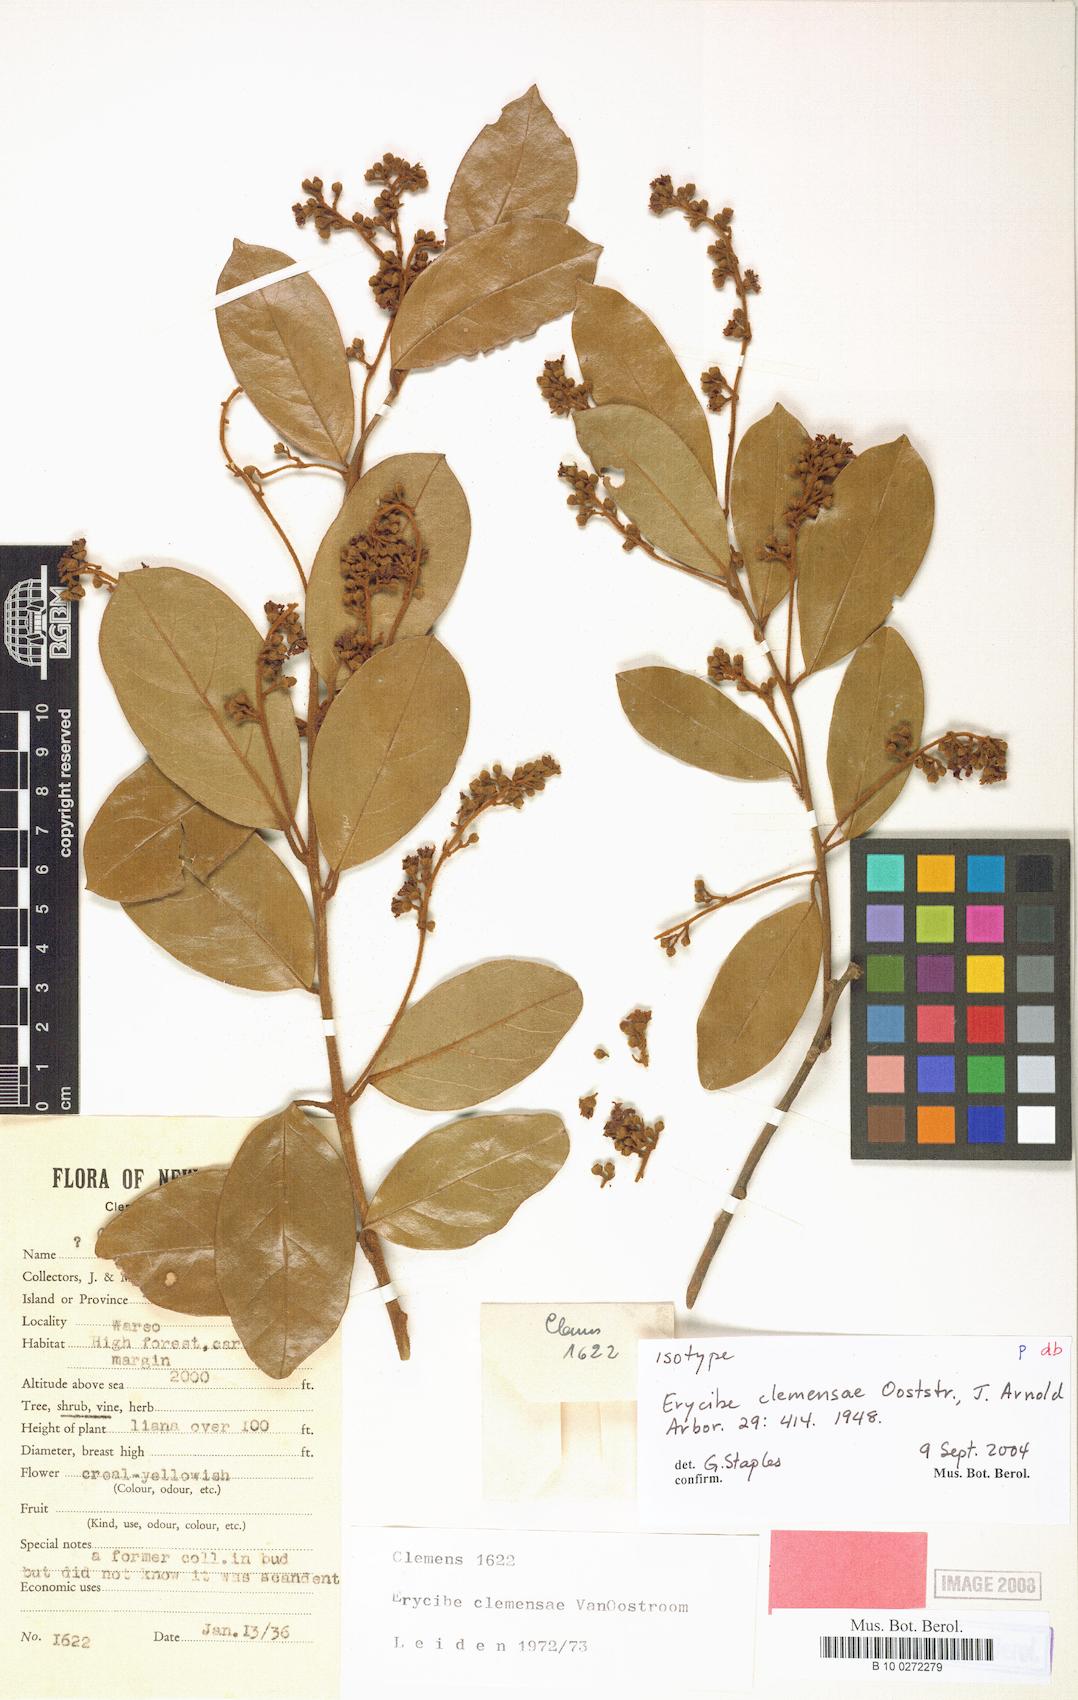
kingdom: Plantae
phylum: Tracheophyta
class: Magnoliopsida
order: Solanales
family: Convolvulaceae
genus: Erycibe
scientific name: Erycibe clemensae
